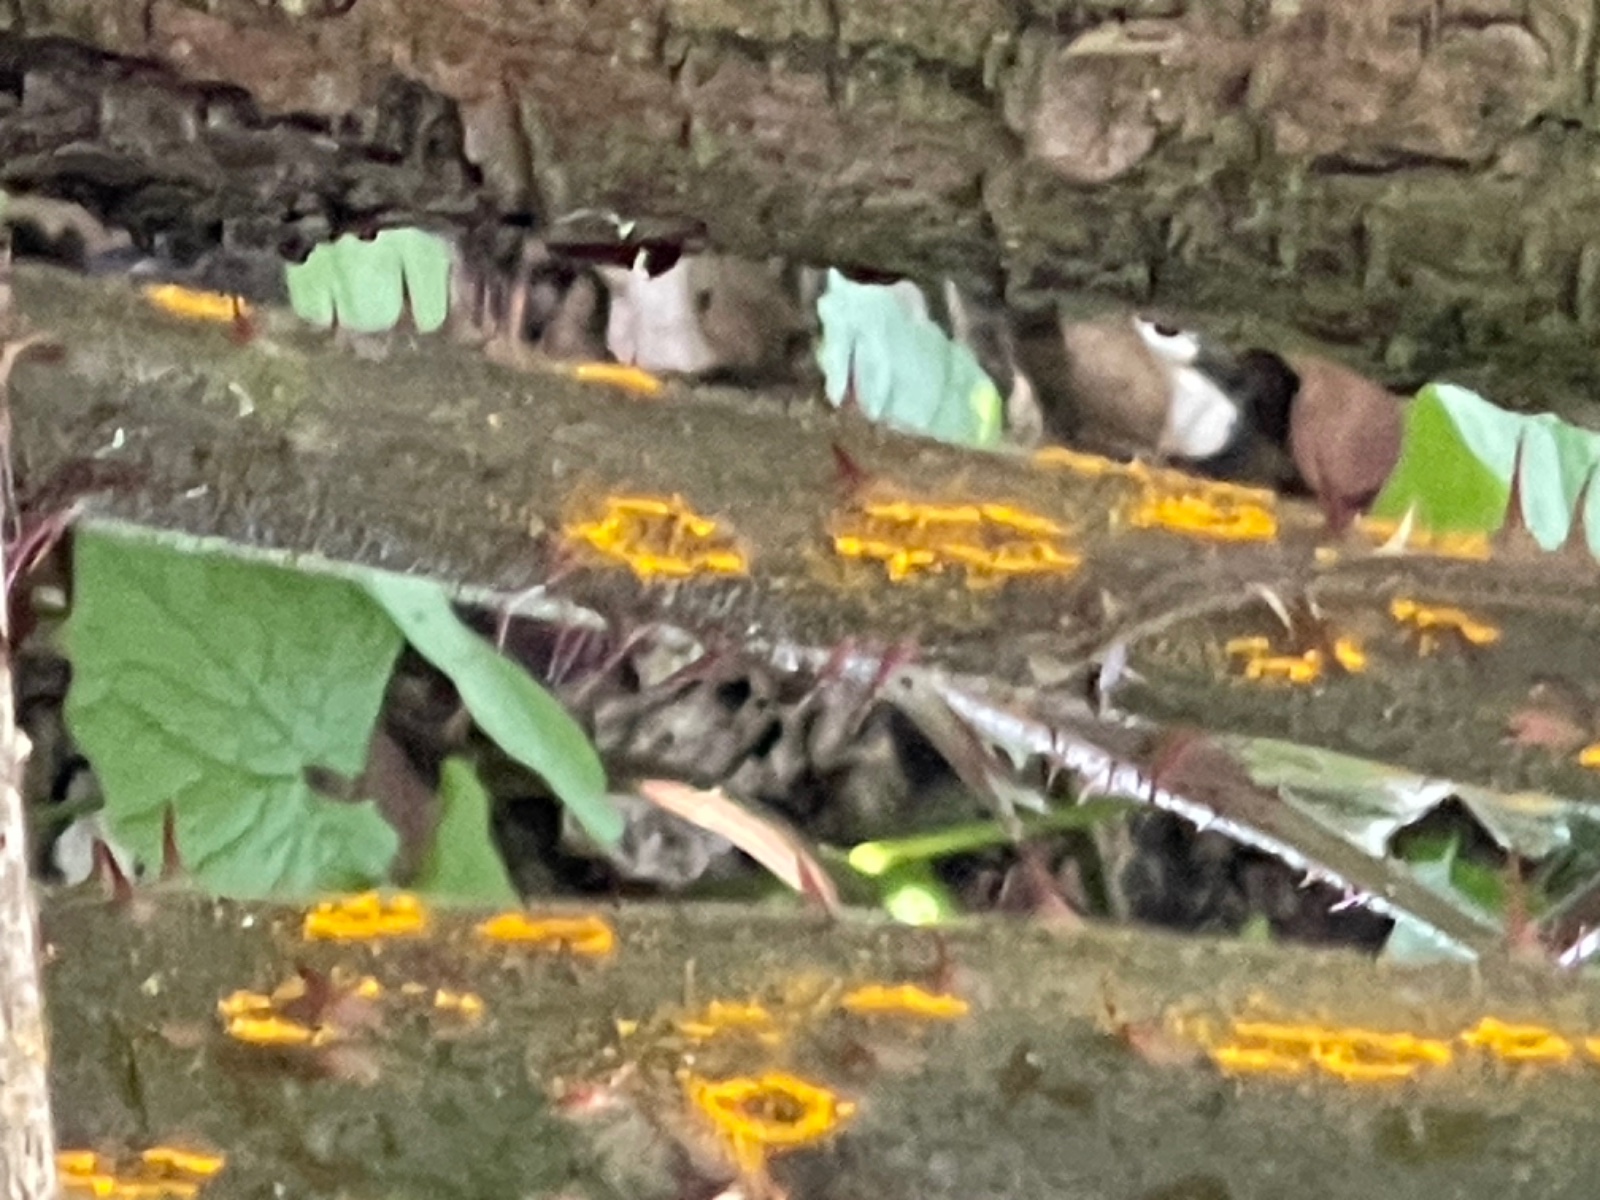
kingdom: Fungi
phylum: Basidiomycota
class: Pucciniomycetes
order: Pucciniales
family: Phragmidiaceae
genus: Kuehneola
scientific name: Kuehneola uredinis
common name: klynger-kædecellerust
